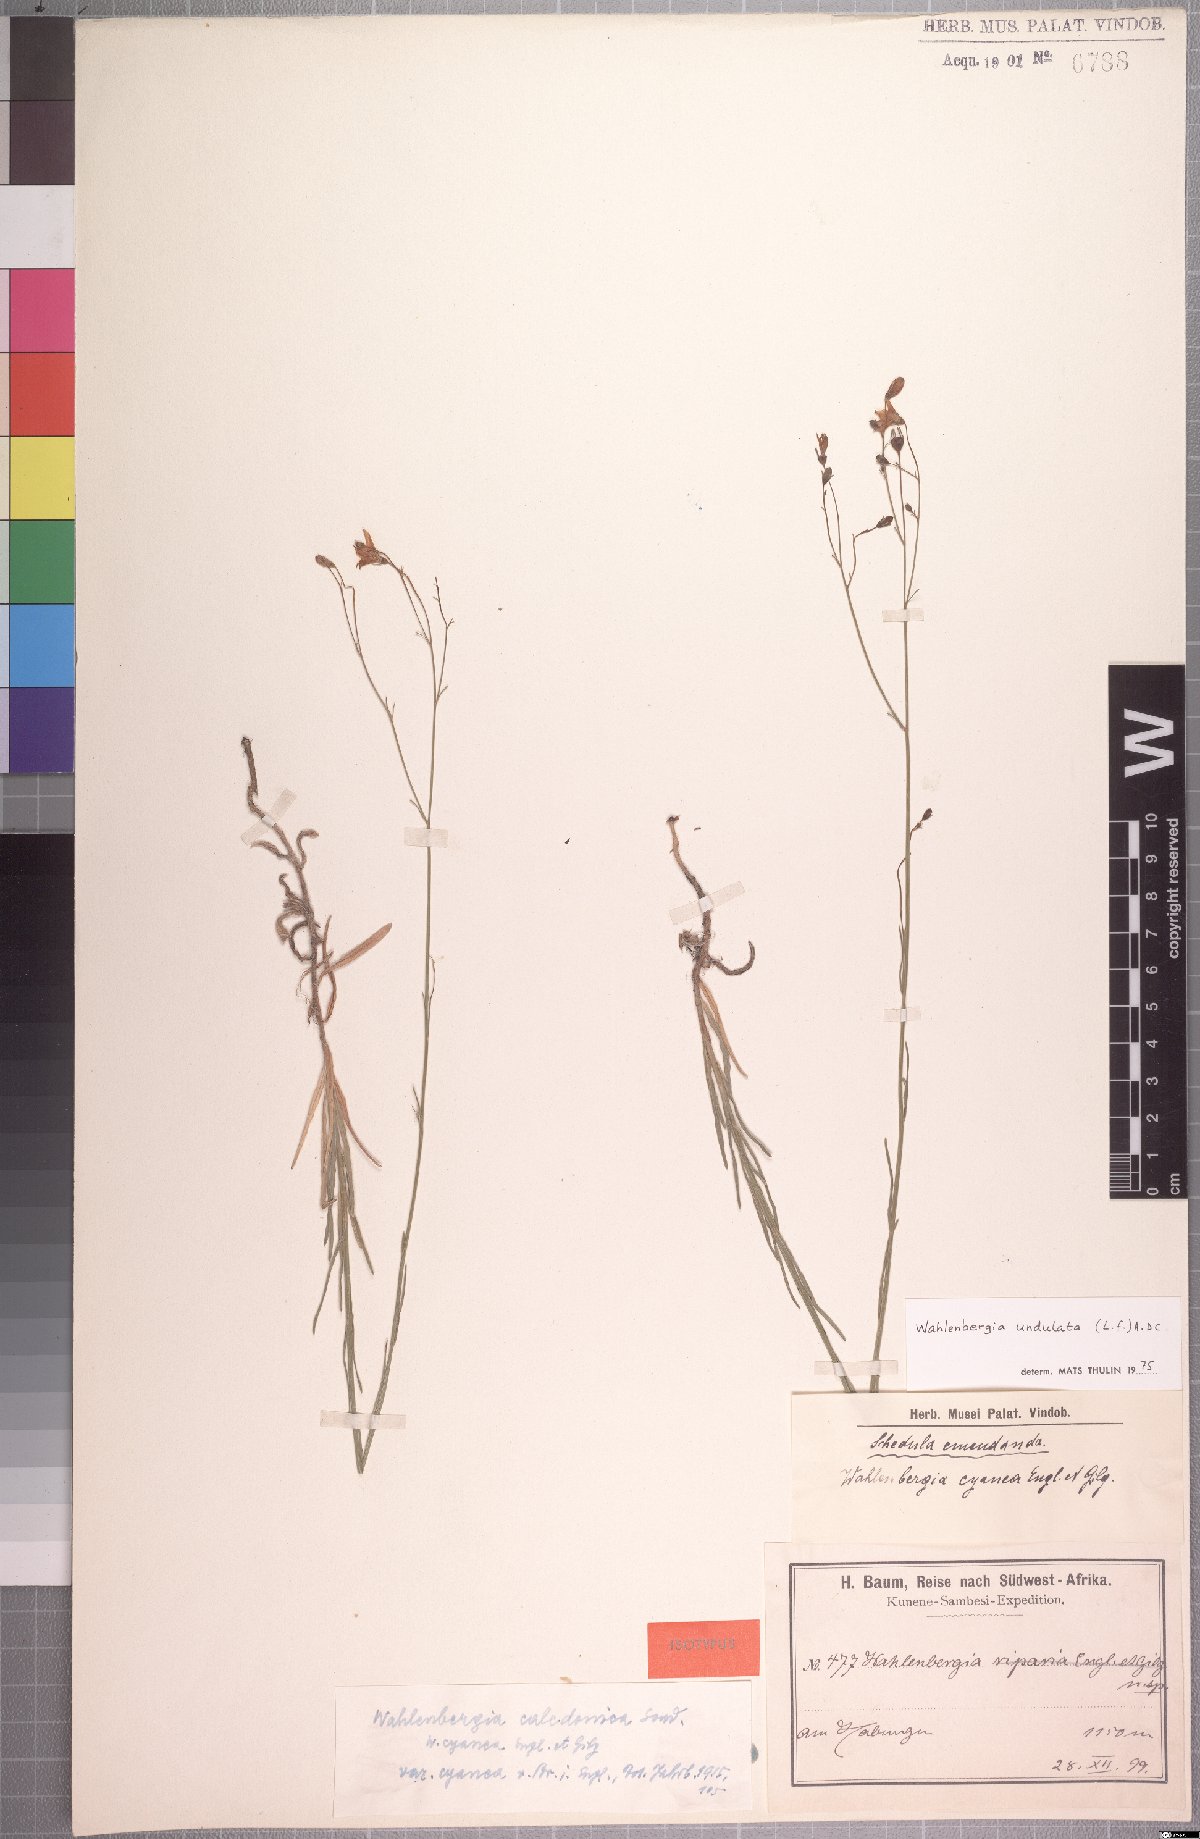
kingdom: Plantae
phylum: Tracheophyta
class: Magnoliopsida
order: Asterales
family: Campanulaceae
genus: Wahlenbergia
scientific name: Wahlenbergia undulata
